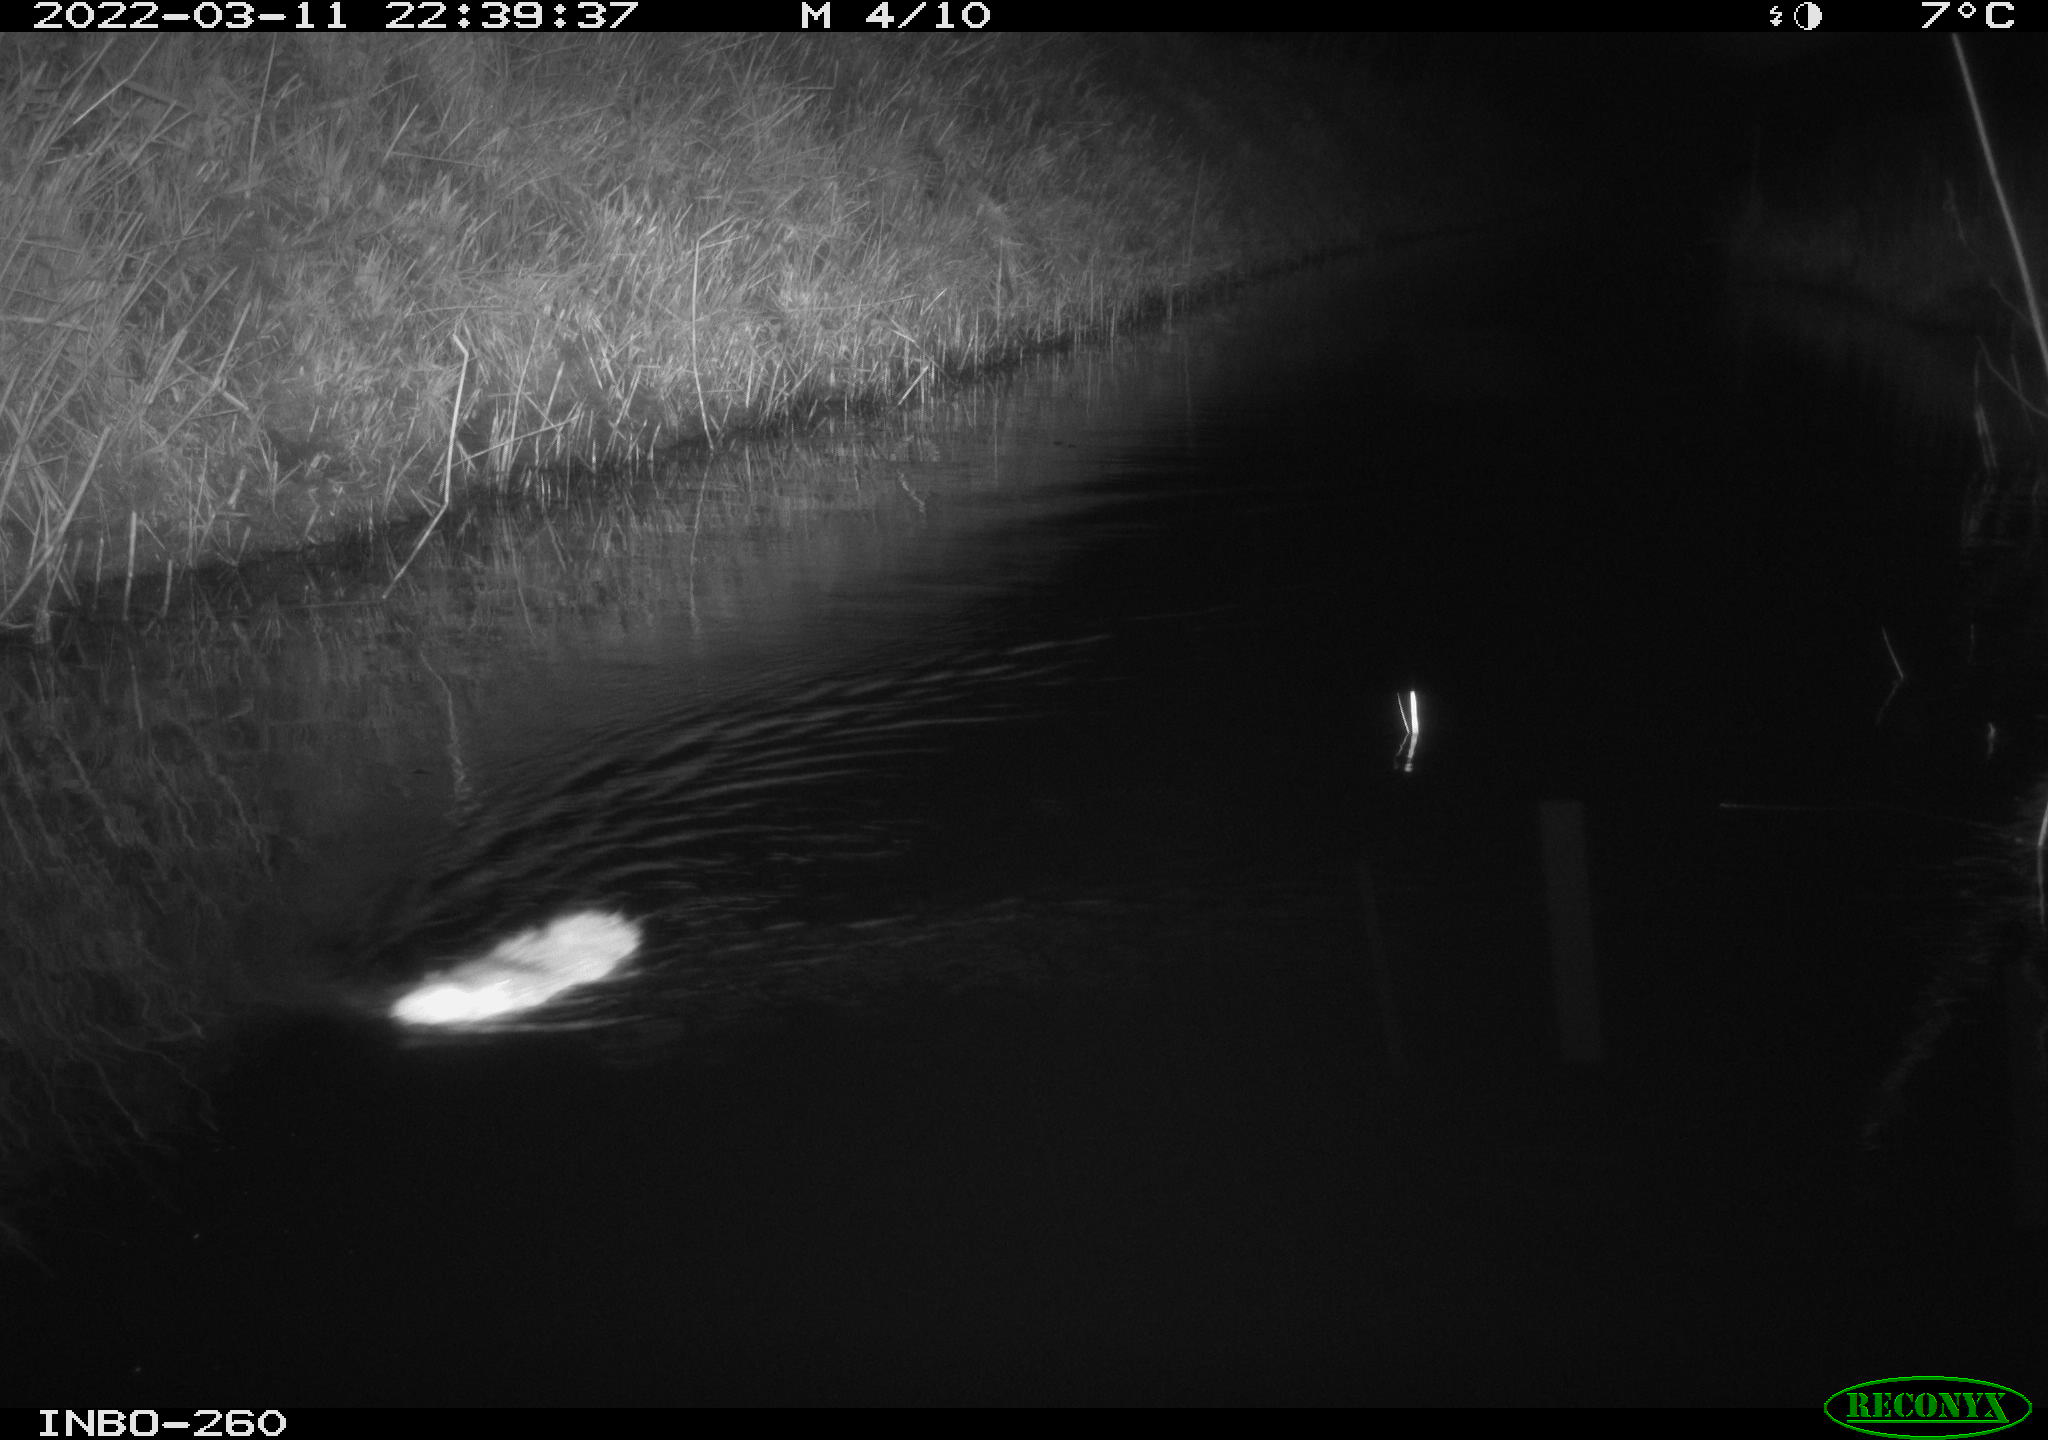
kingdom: Animalia
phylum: Chordata
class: Mammalia
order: Rodentia
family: Cricetidae
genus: Ondatra
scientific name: Ondatra zibethicus
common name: Muskrat
